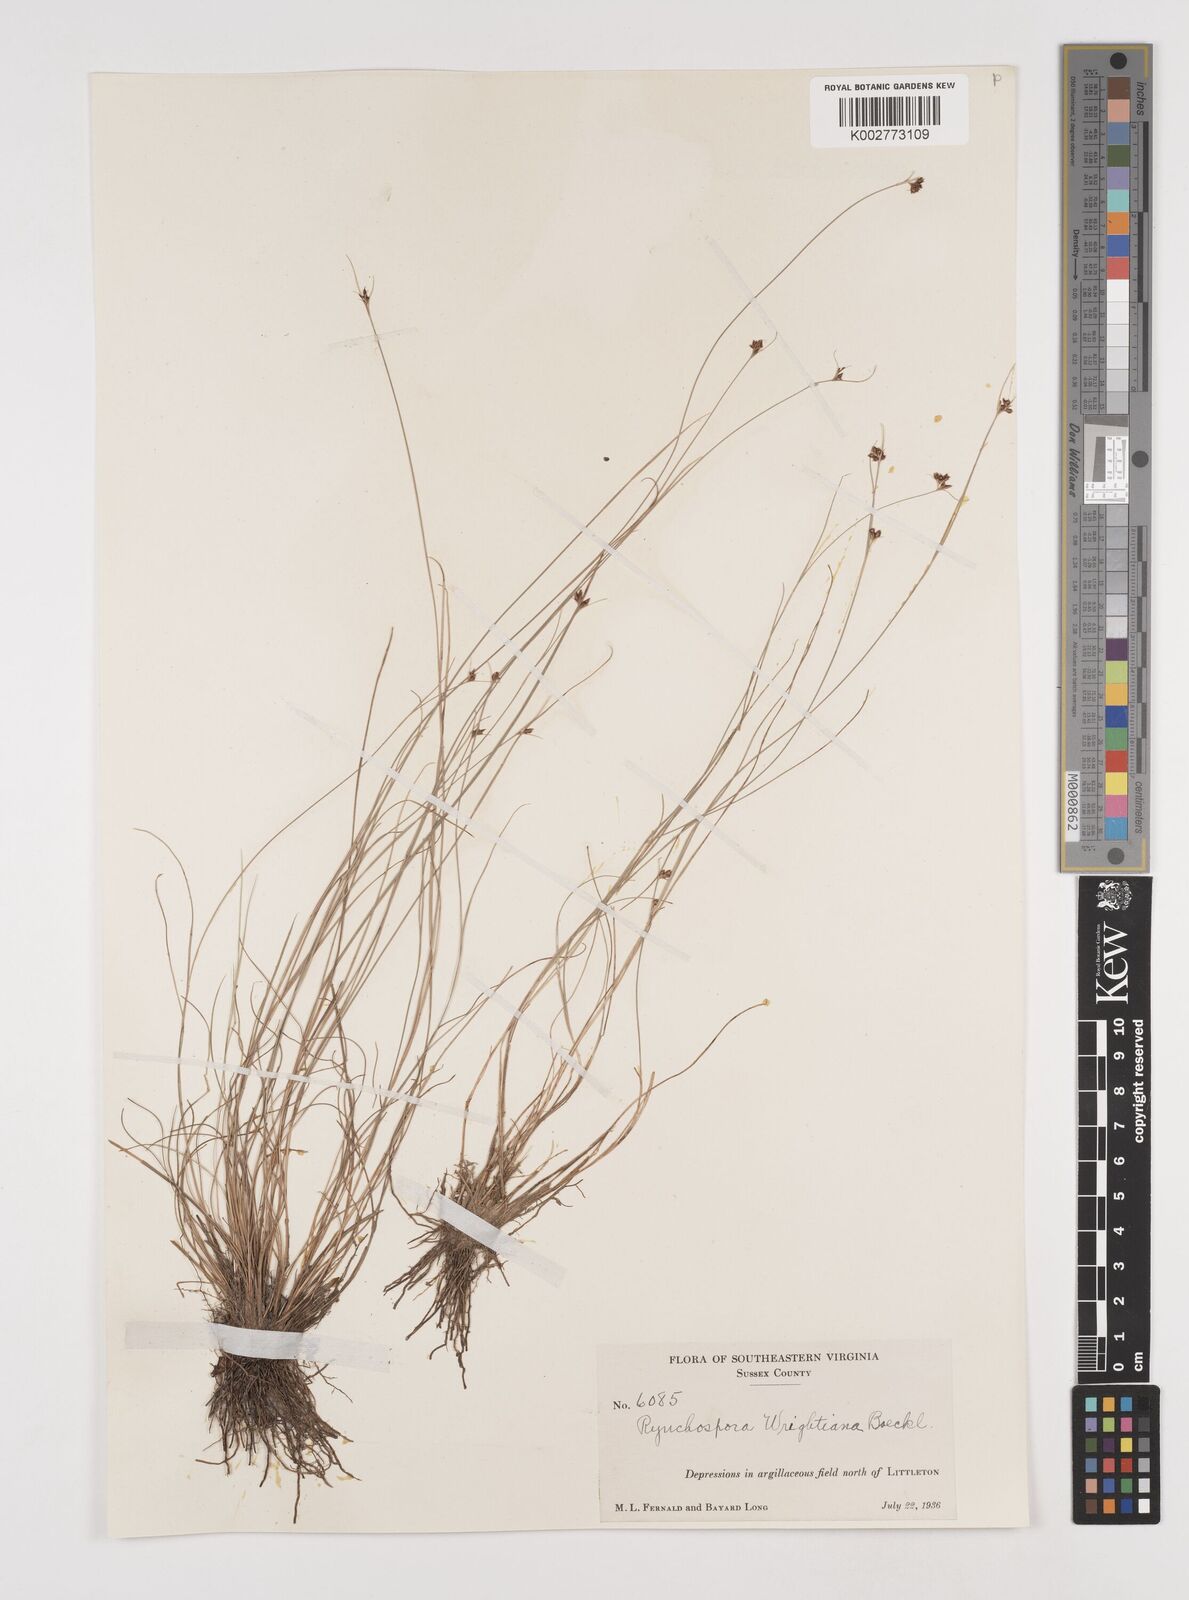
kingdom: Plantae
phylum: Tracheophyta
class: Liliopsida
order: Poales
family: Cyperaceae
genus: Rhynchospora
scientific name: Rhynchospora wrightiana
